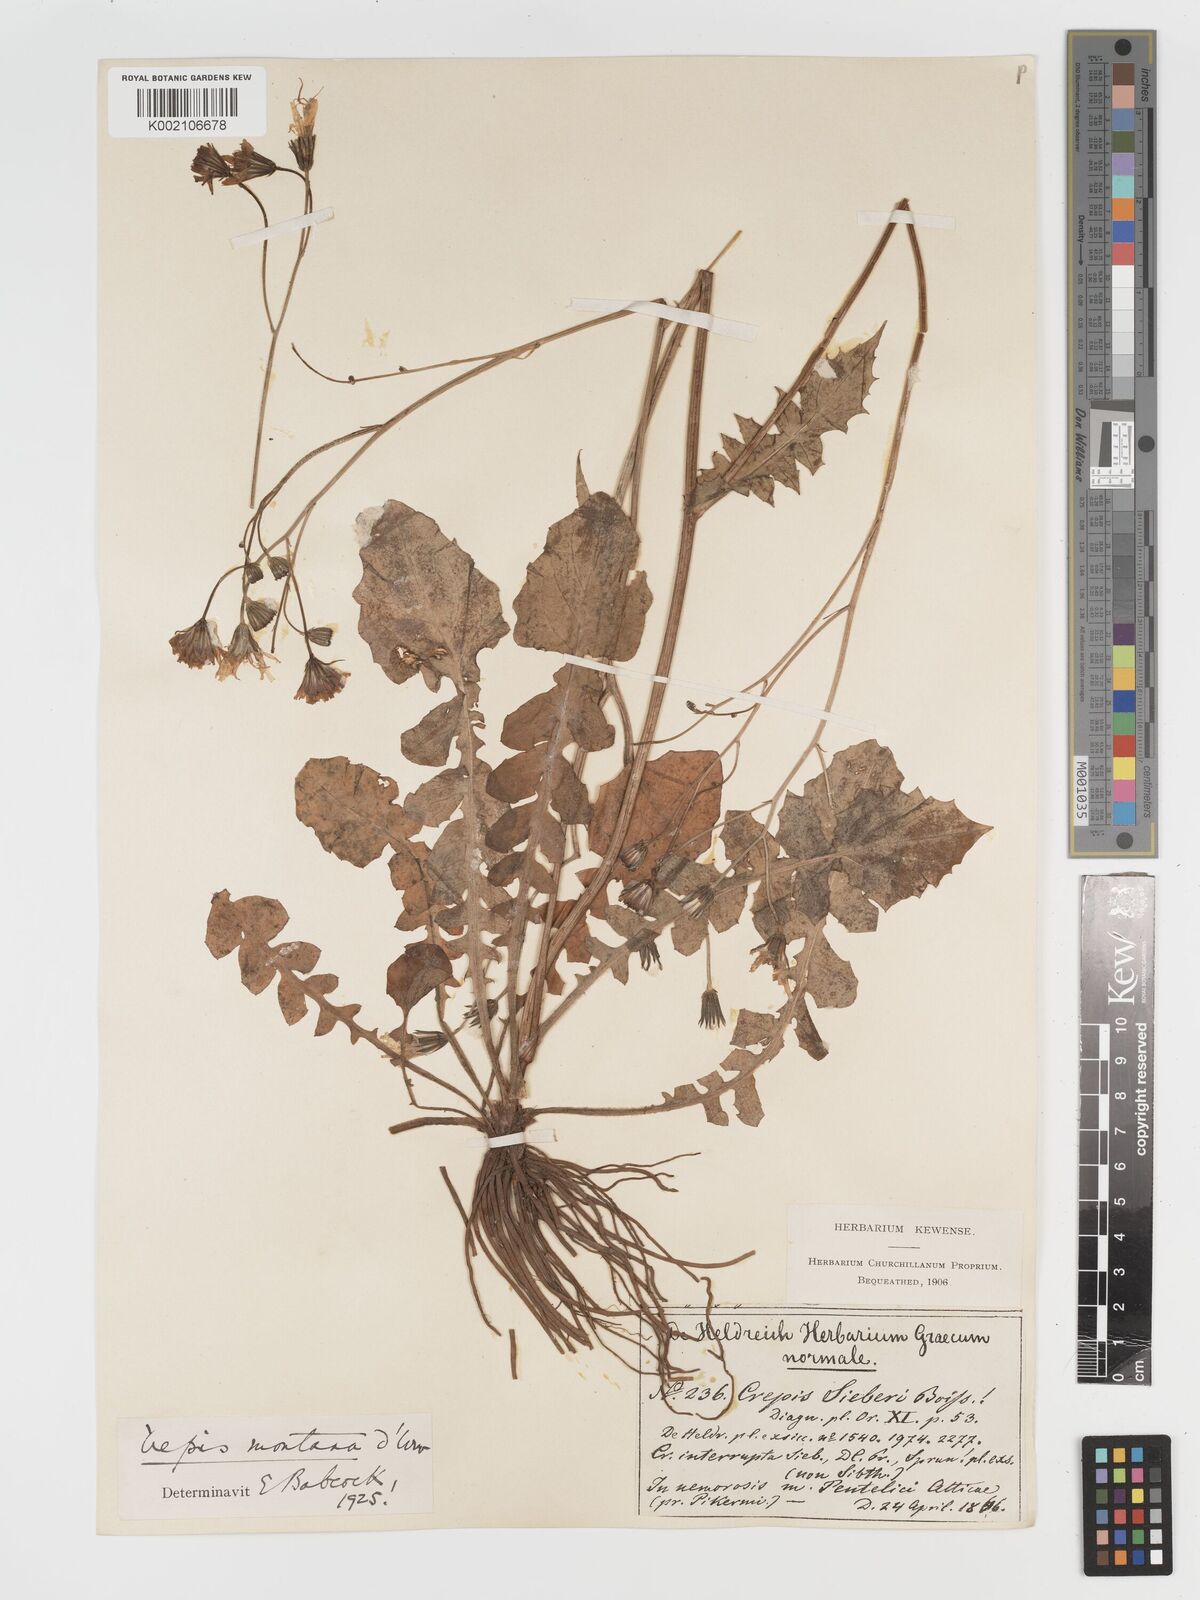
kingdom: Plantae
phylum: Tracheophyta
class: Magnoliopsida
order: Asterales
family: Asteraceae
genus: Crepis
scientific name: Crepis
